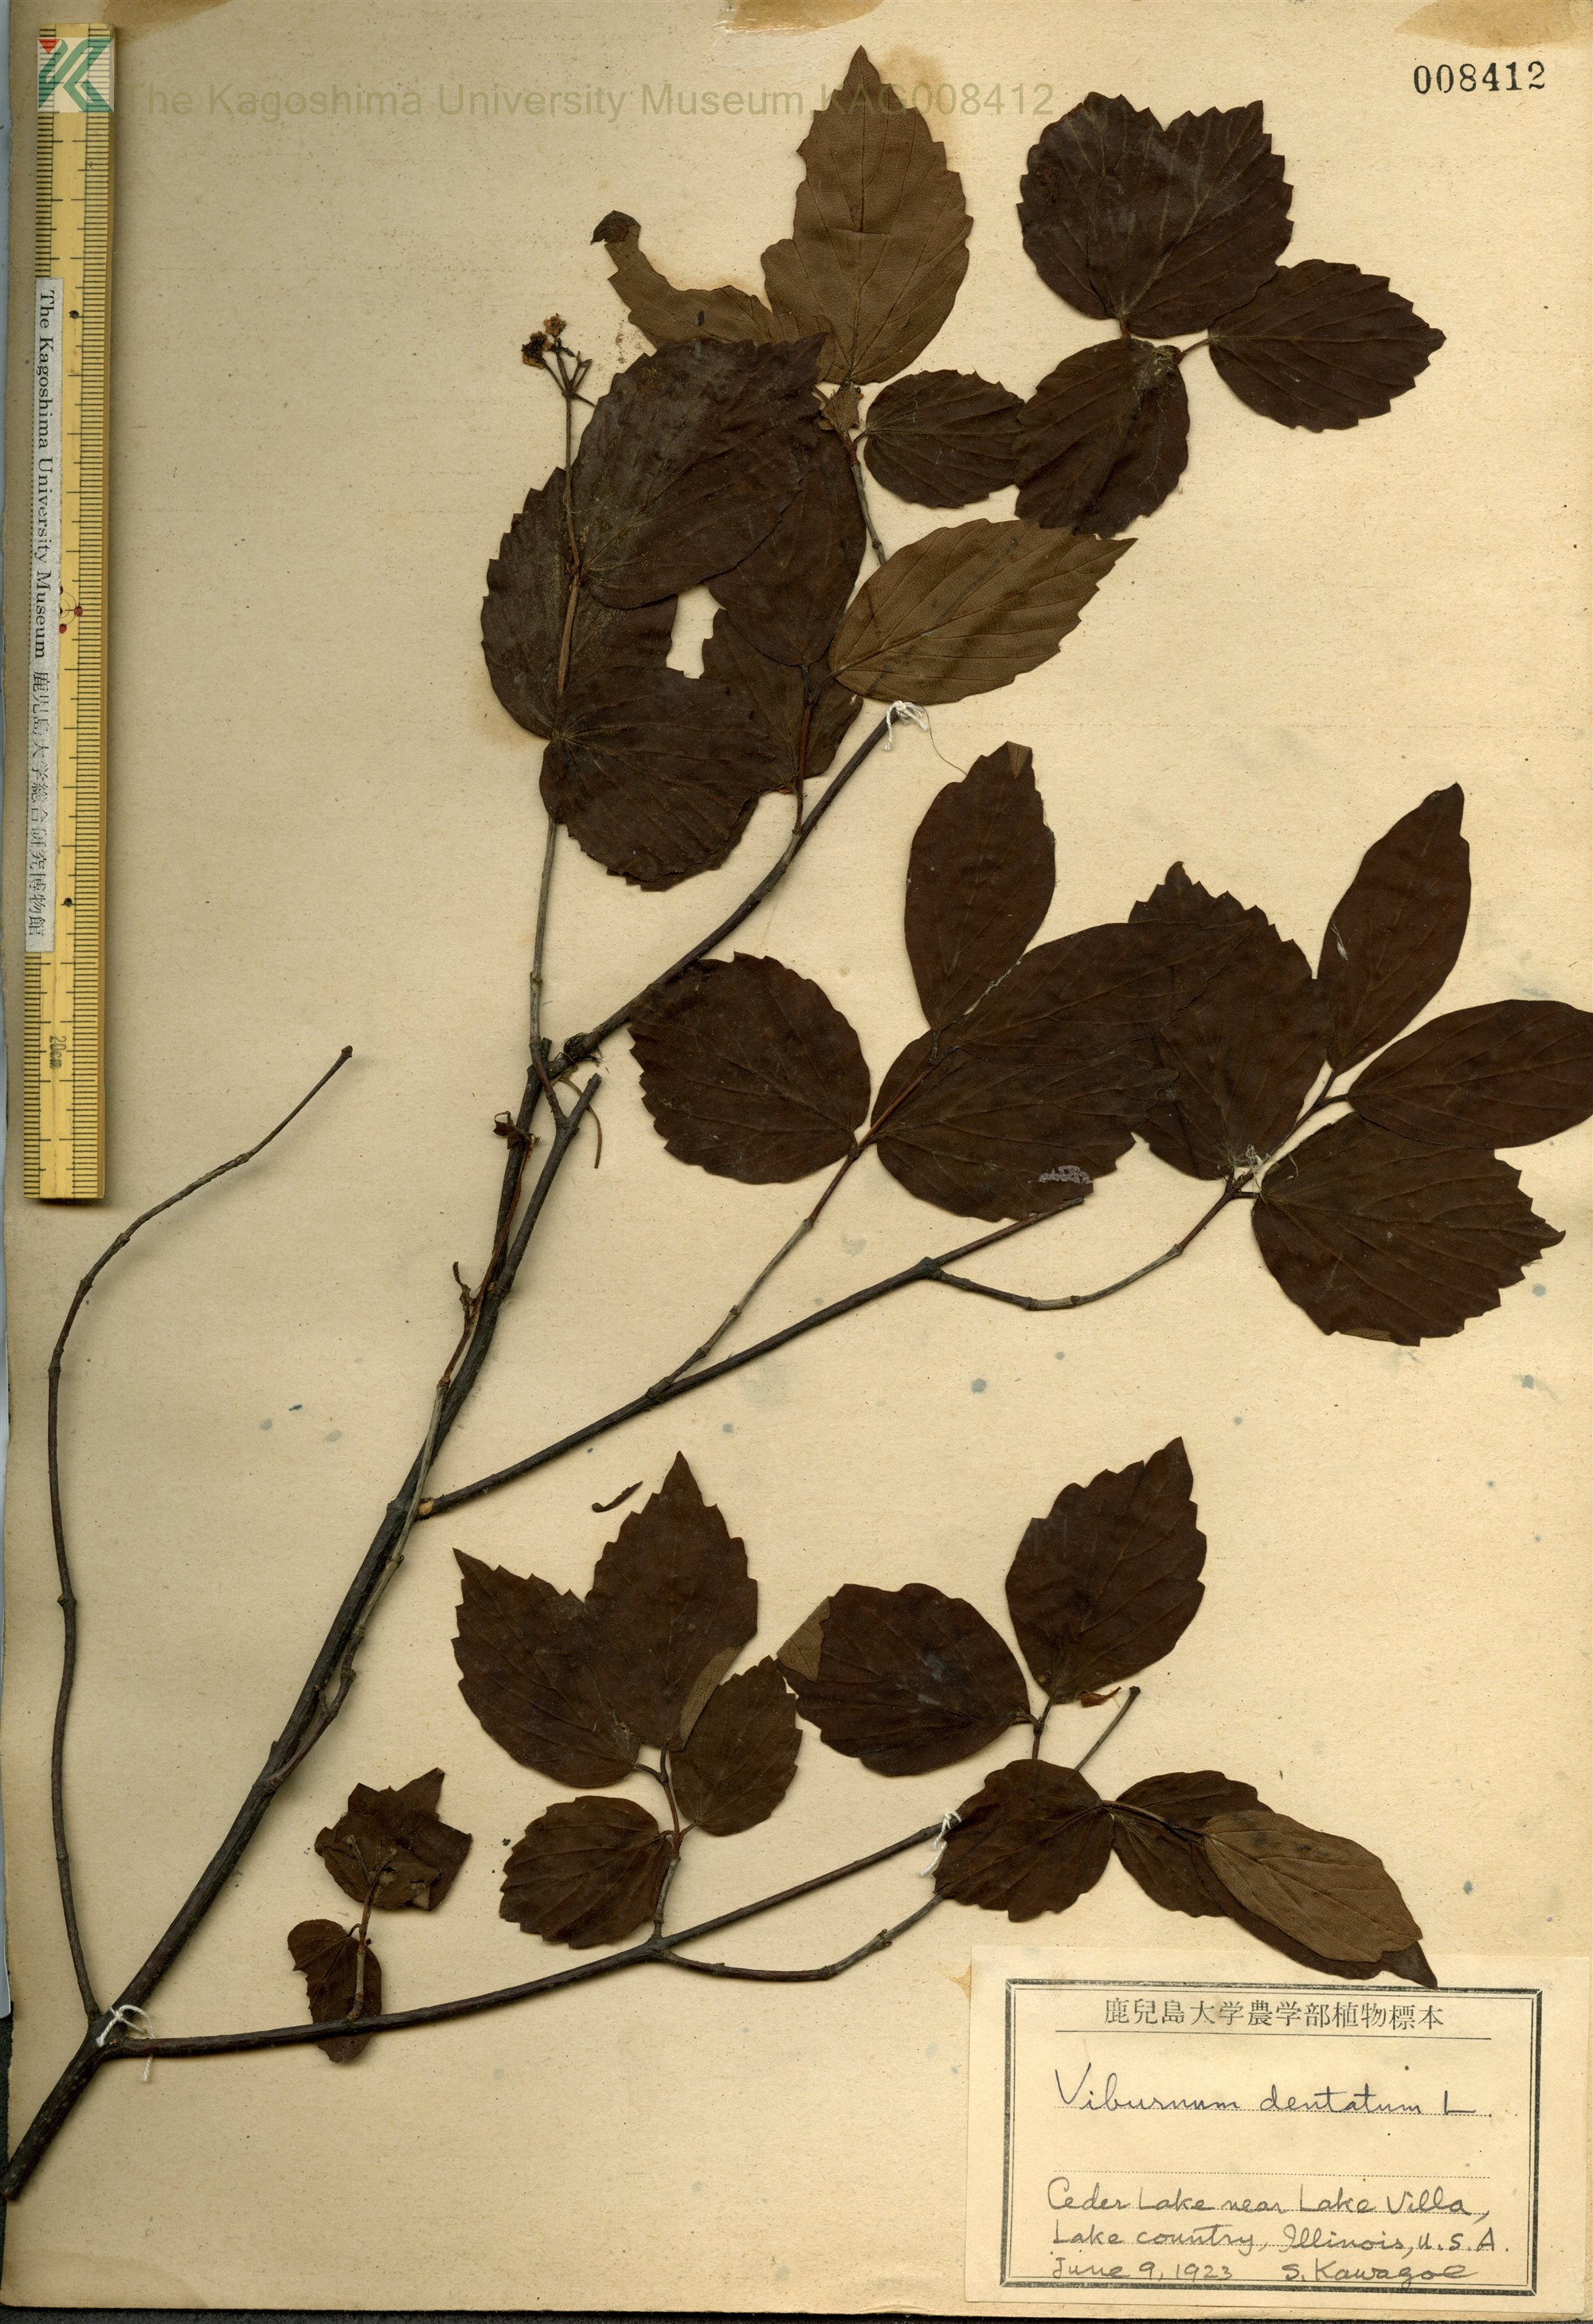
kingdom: Plantae
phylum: Tracheophyta
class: Magnoliopsida
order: Dipsacales
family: Viburnaceae
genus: Viburnum
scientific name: Viburnum dentatum
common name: Arrow-wood
